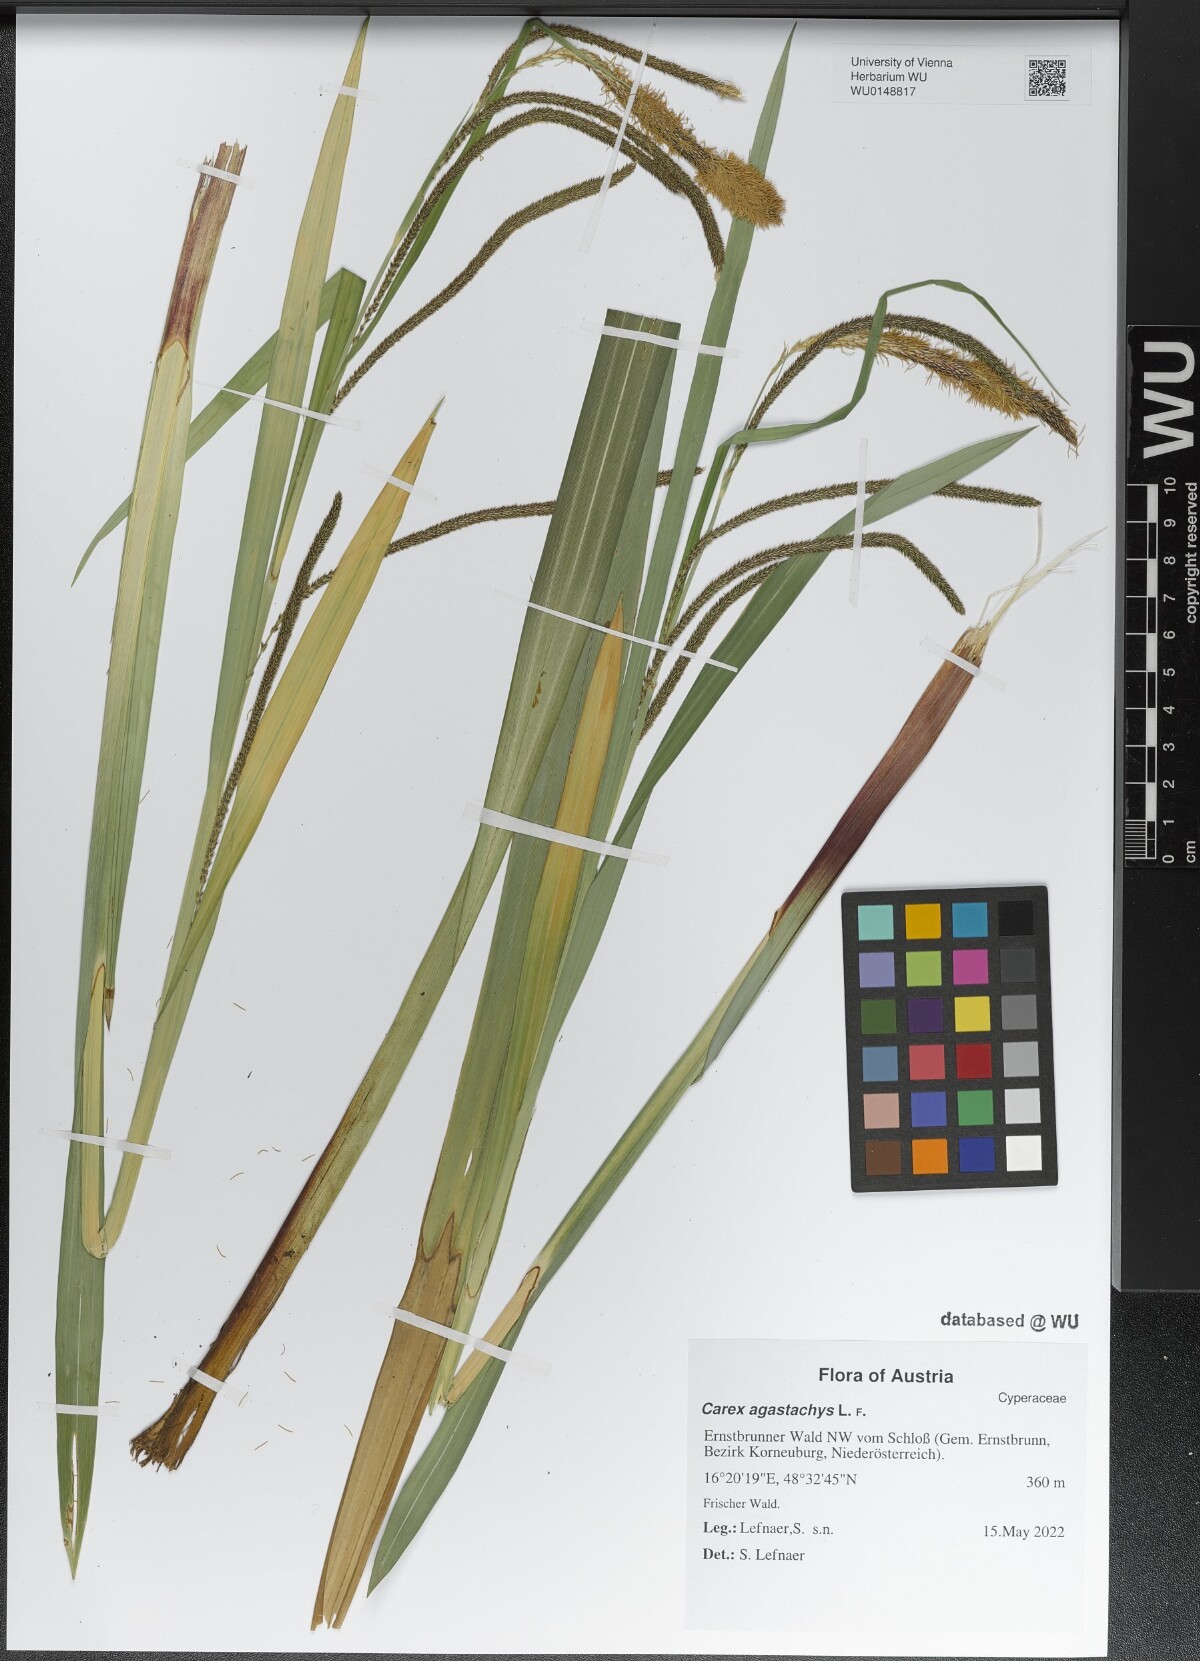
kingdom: Plantae
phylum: Tracheophyta
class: Liliopsida
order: Poales
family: Cyperaceae
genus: Carex
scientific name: Carex agastachys
